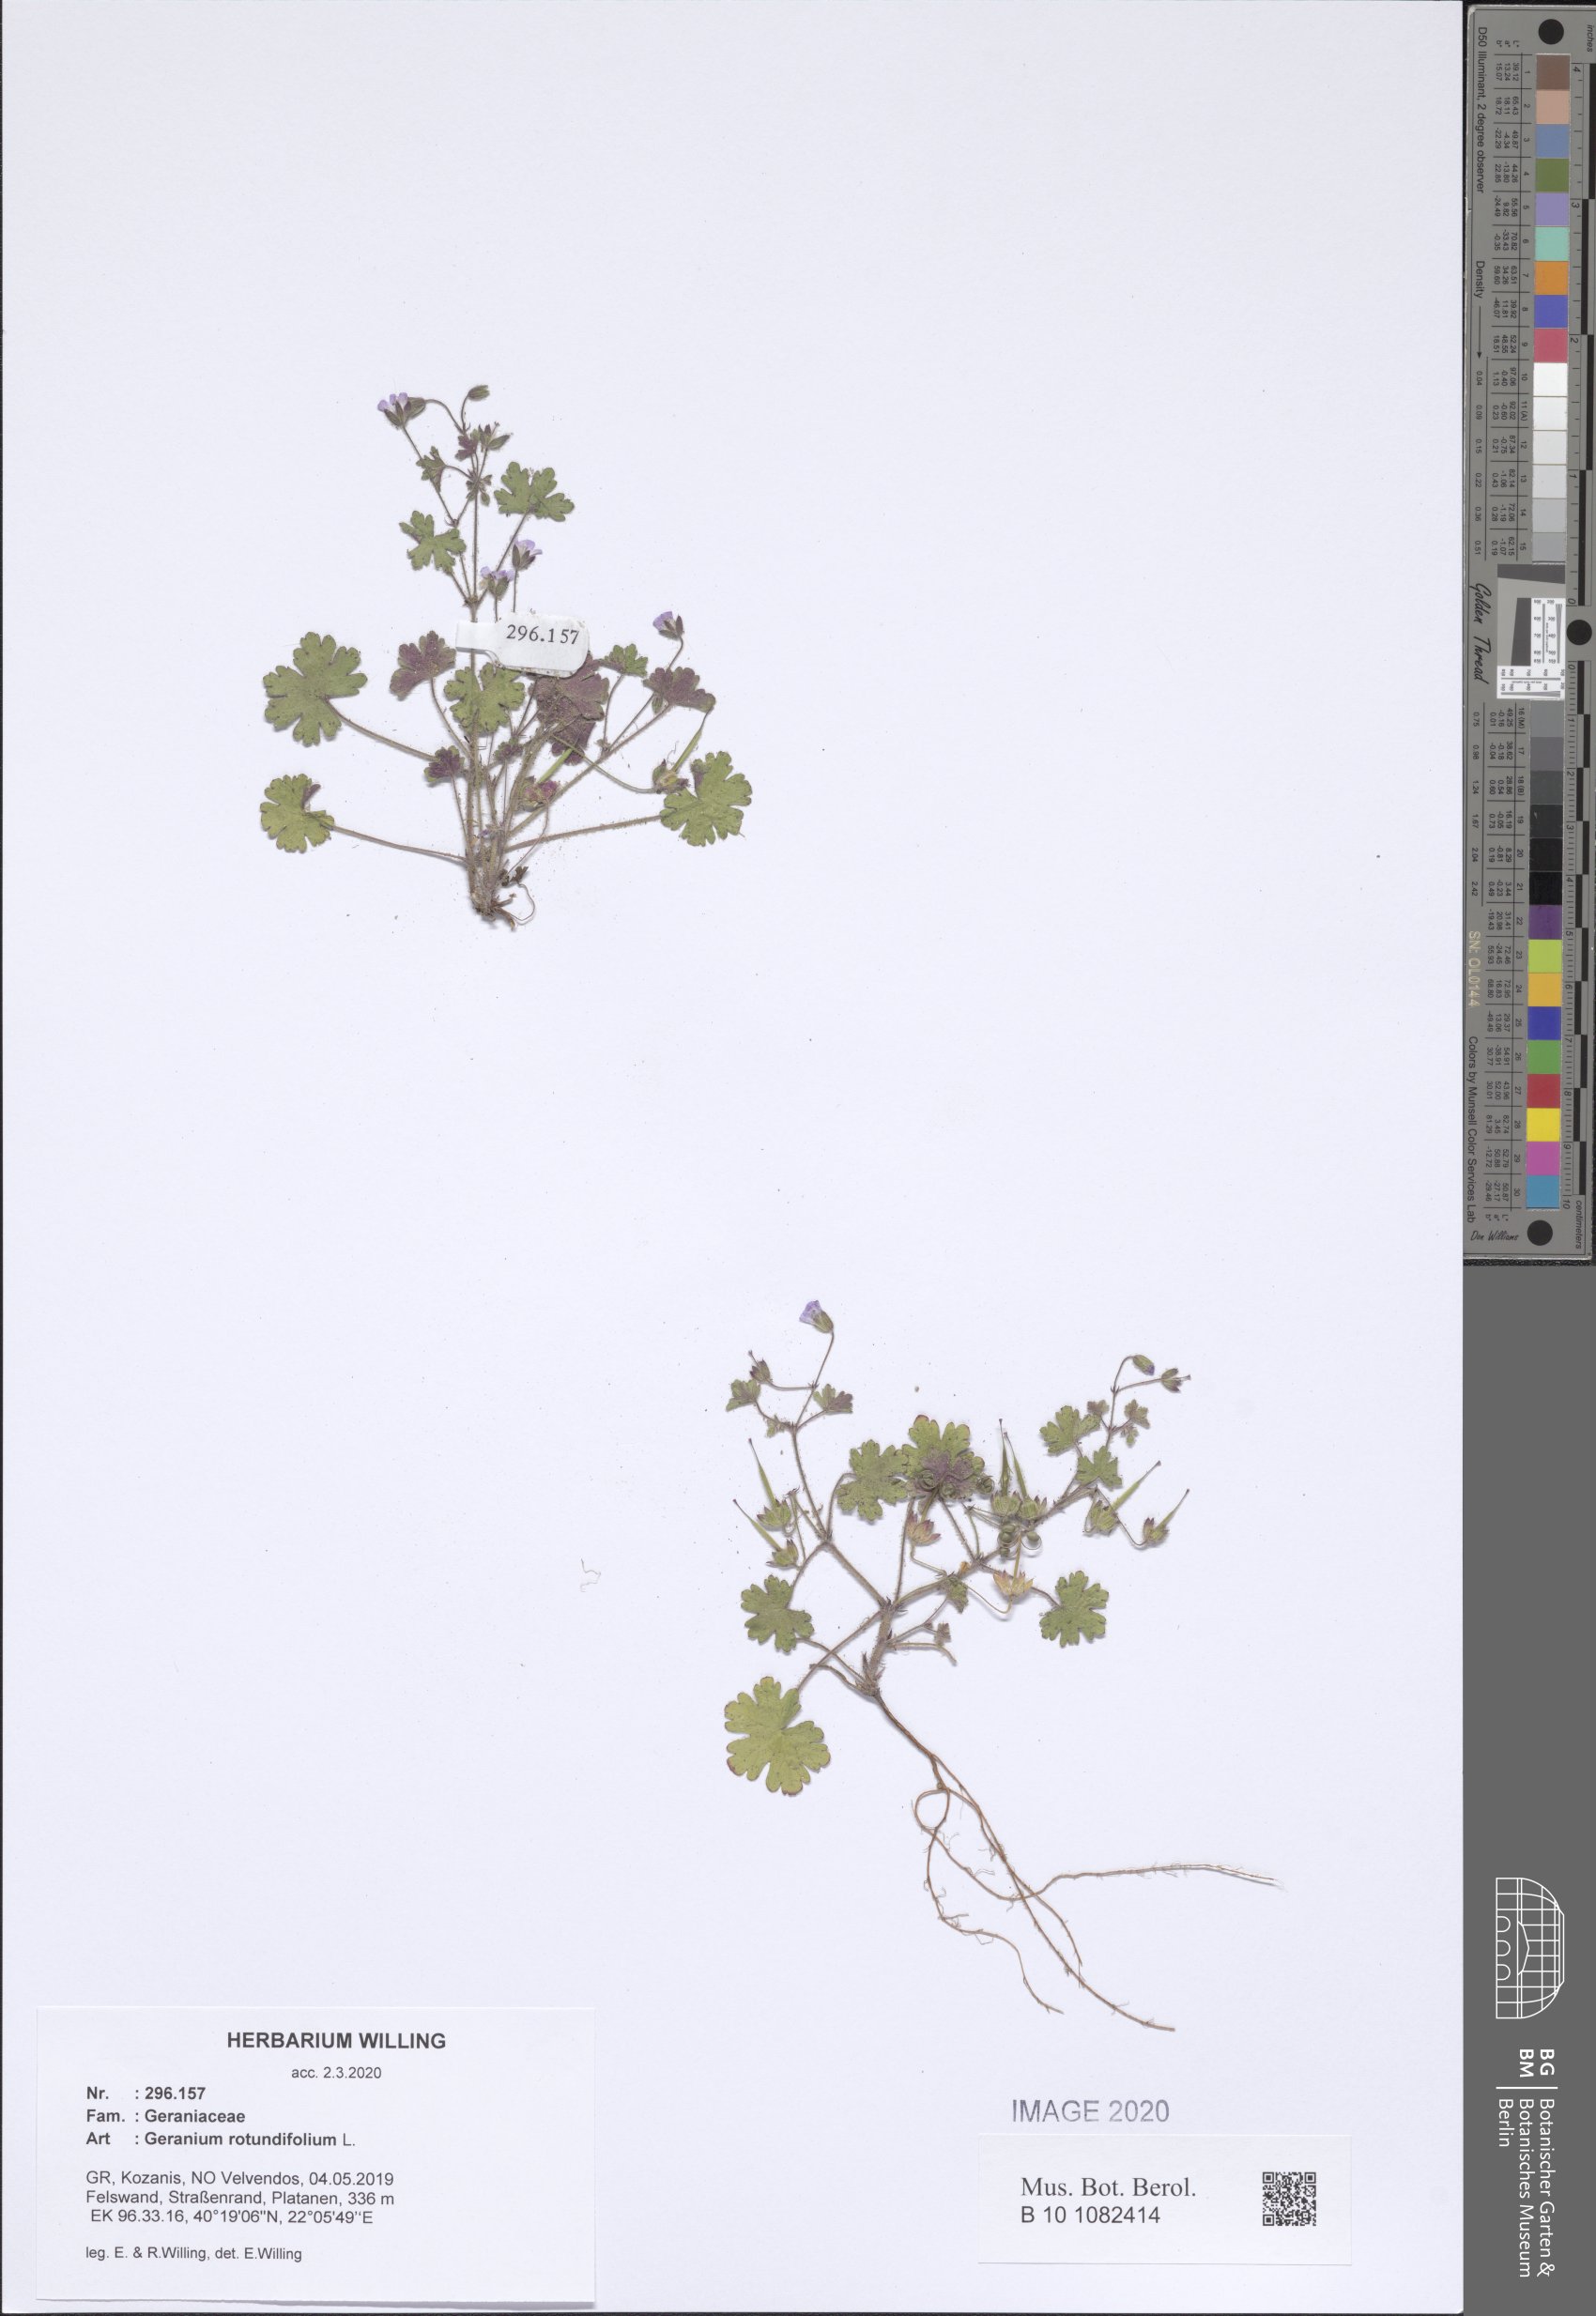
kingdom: Plantae
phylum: Tracheophyta
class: Magnoliopsida
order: Geraniales
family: Geraniaceae
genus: Geranium
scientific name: Geranium rotundifolium
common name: Round-leaved crane's-bill
